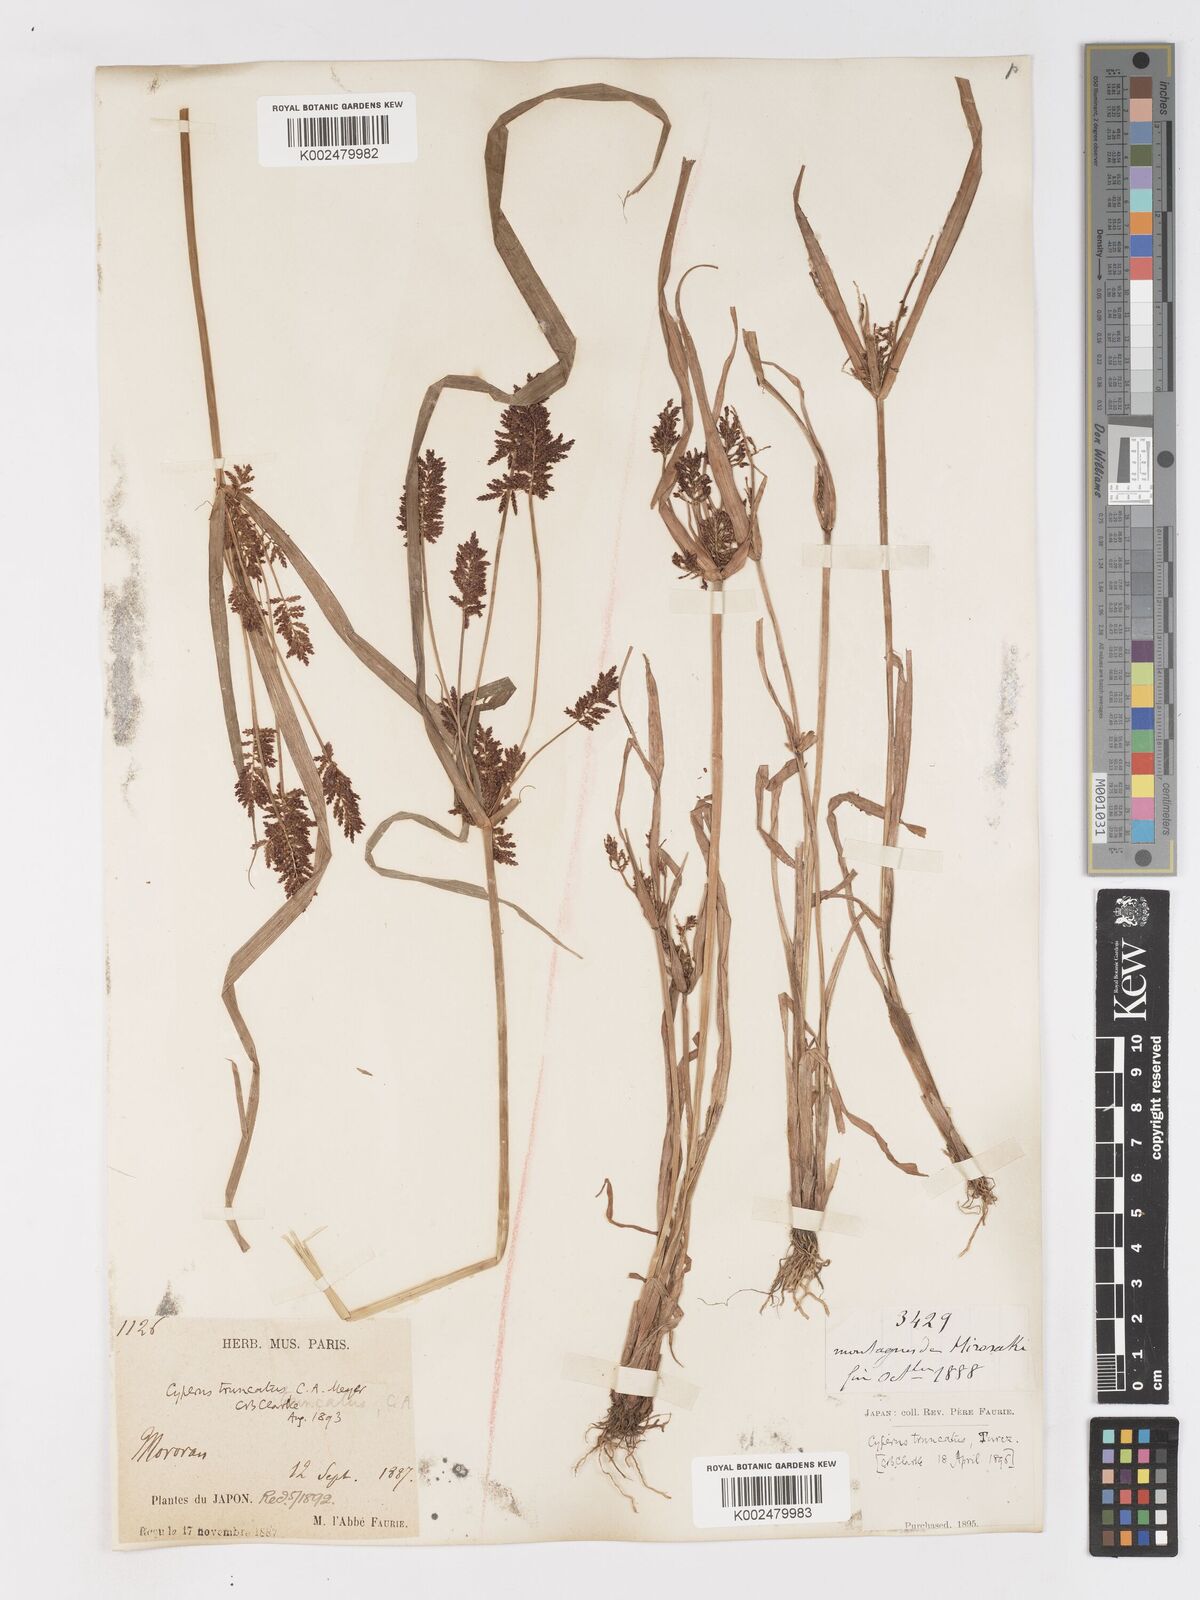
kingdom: Plantae
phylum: Tracheophyta
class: Liliopsida
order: Poales
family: Cyperaceae
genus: Cyperus
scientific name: Cyperus orthostachyus
